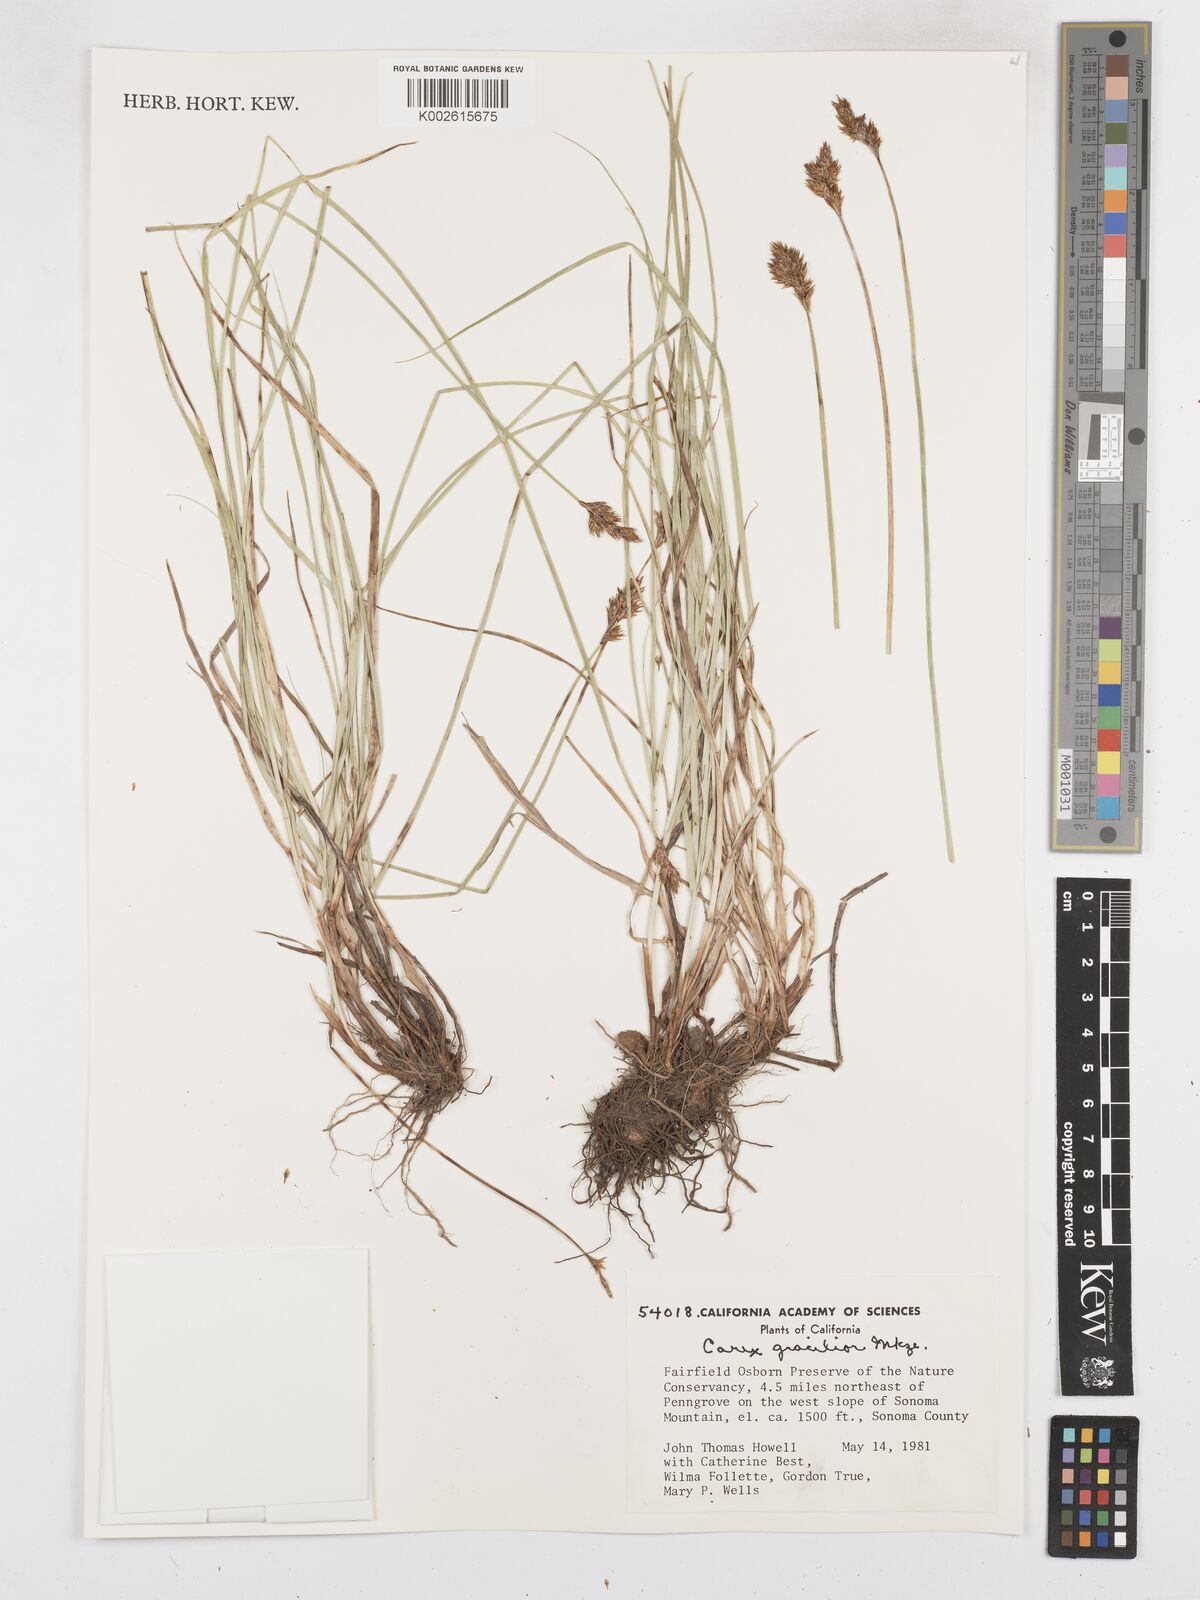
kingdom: Plantae
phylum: Tracheophyta
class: Liliopsida
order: Poales
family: Cyperaceae
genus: Carex
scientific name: Carex gracilior
